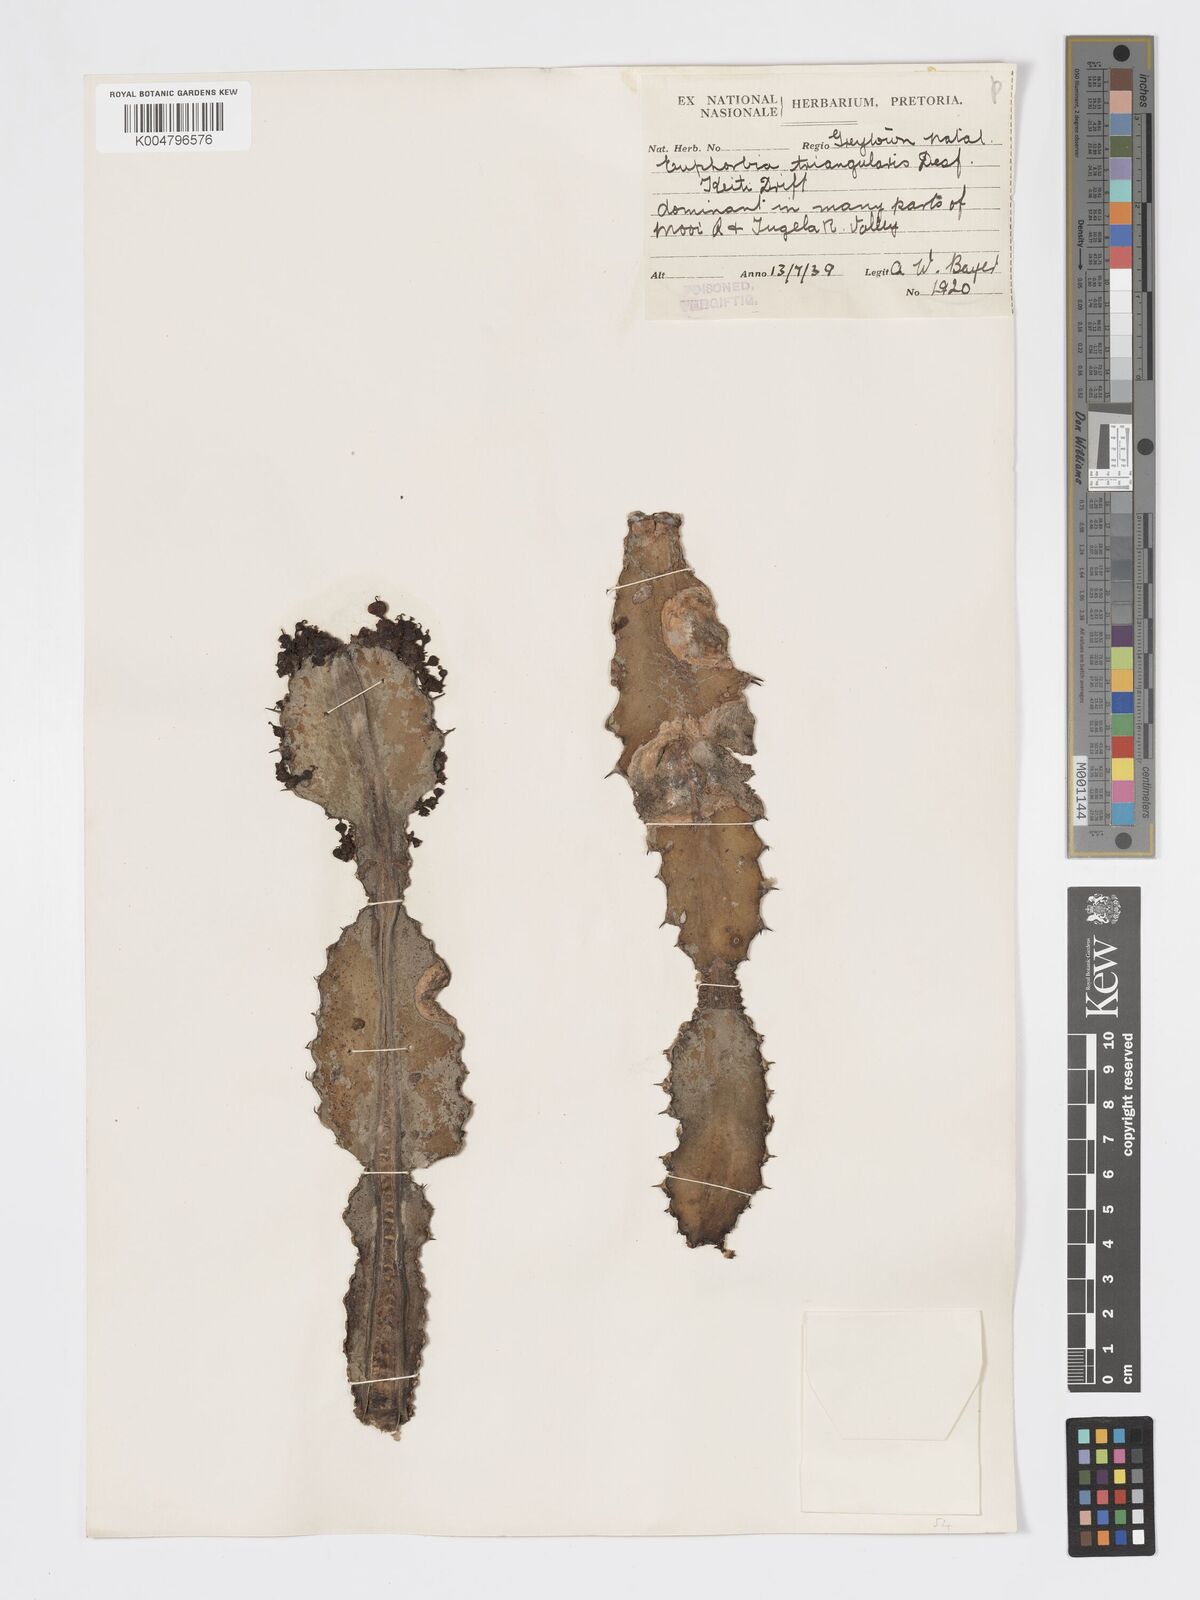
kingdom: Plantae
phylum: Tracheophyta
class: Magnoliopsida
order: Malpighiales
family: Euphorbiaceae
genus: Euphorbia
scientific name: Euphorbia triangularis
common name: Chandelier tree
